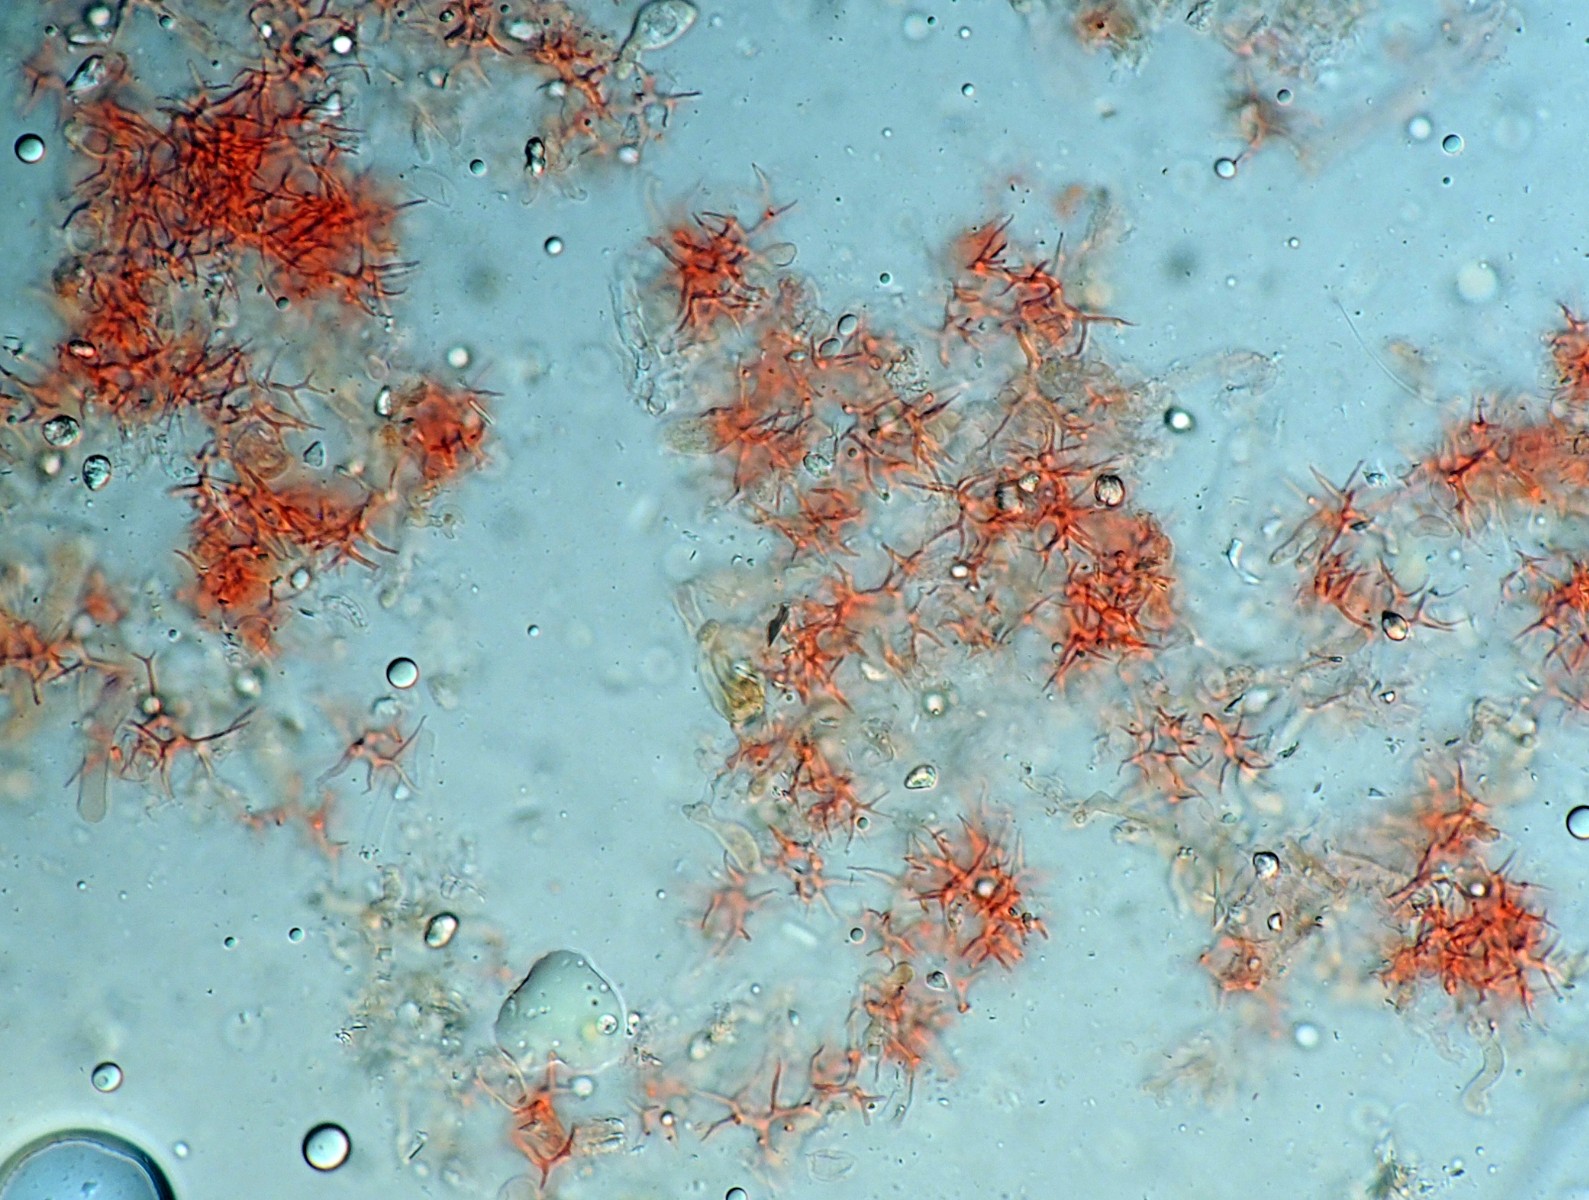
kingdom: Fungi
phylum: Basidiomycota
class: Agaricomycetes
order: Russulales
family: Peniophoraceae
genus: Vararia
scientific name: Vararia gallica
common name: gallisk stjerneskind
